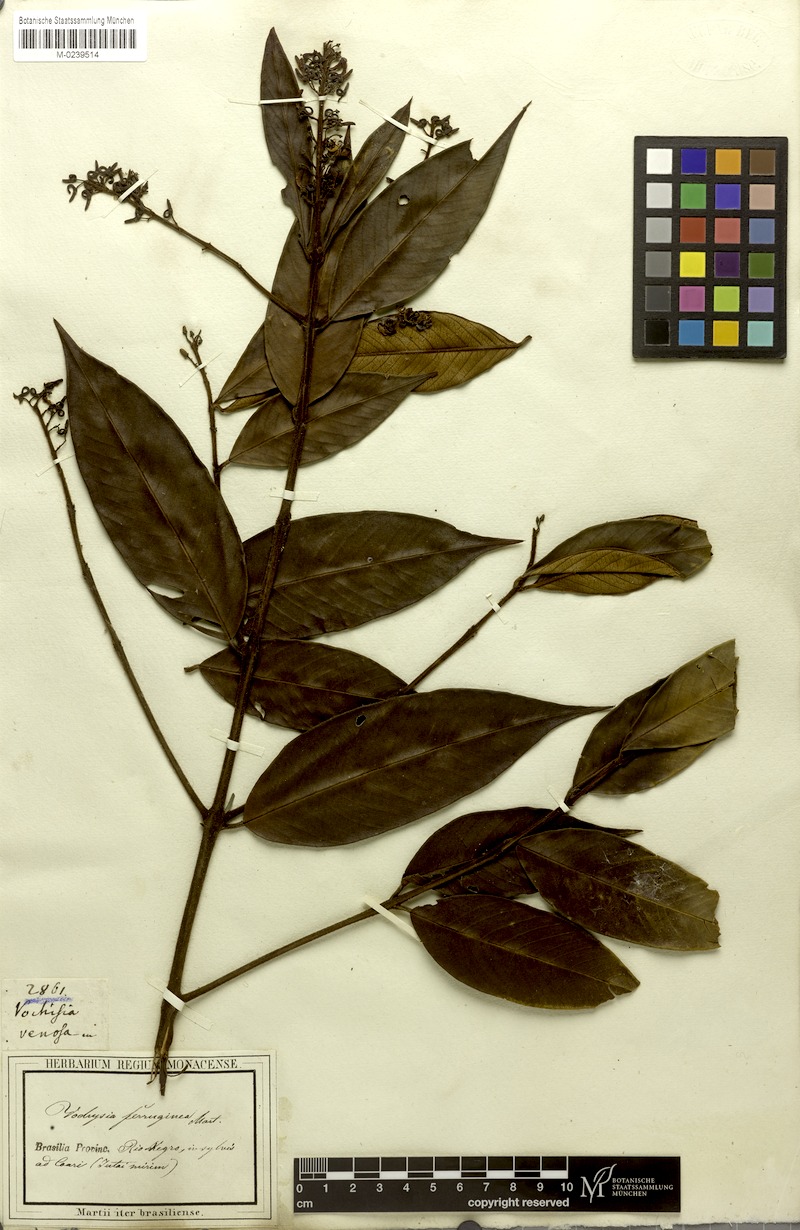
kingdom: Plantae
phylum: Tracheophyta
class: Magnoliopsida
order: Myrtales
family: Vochysiaceae
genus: Vochysia
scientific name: Vochysia ferruginea
